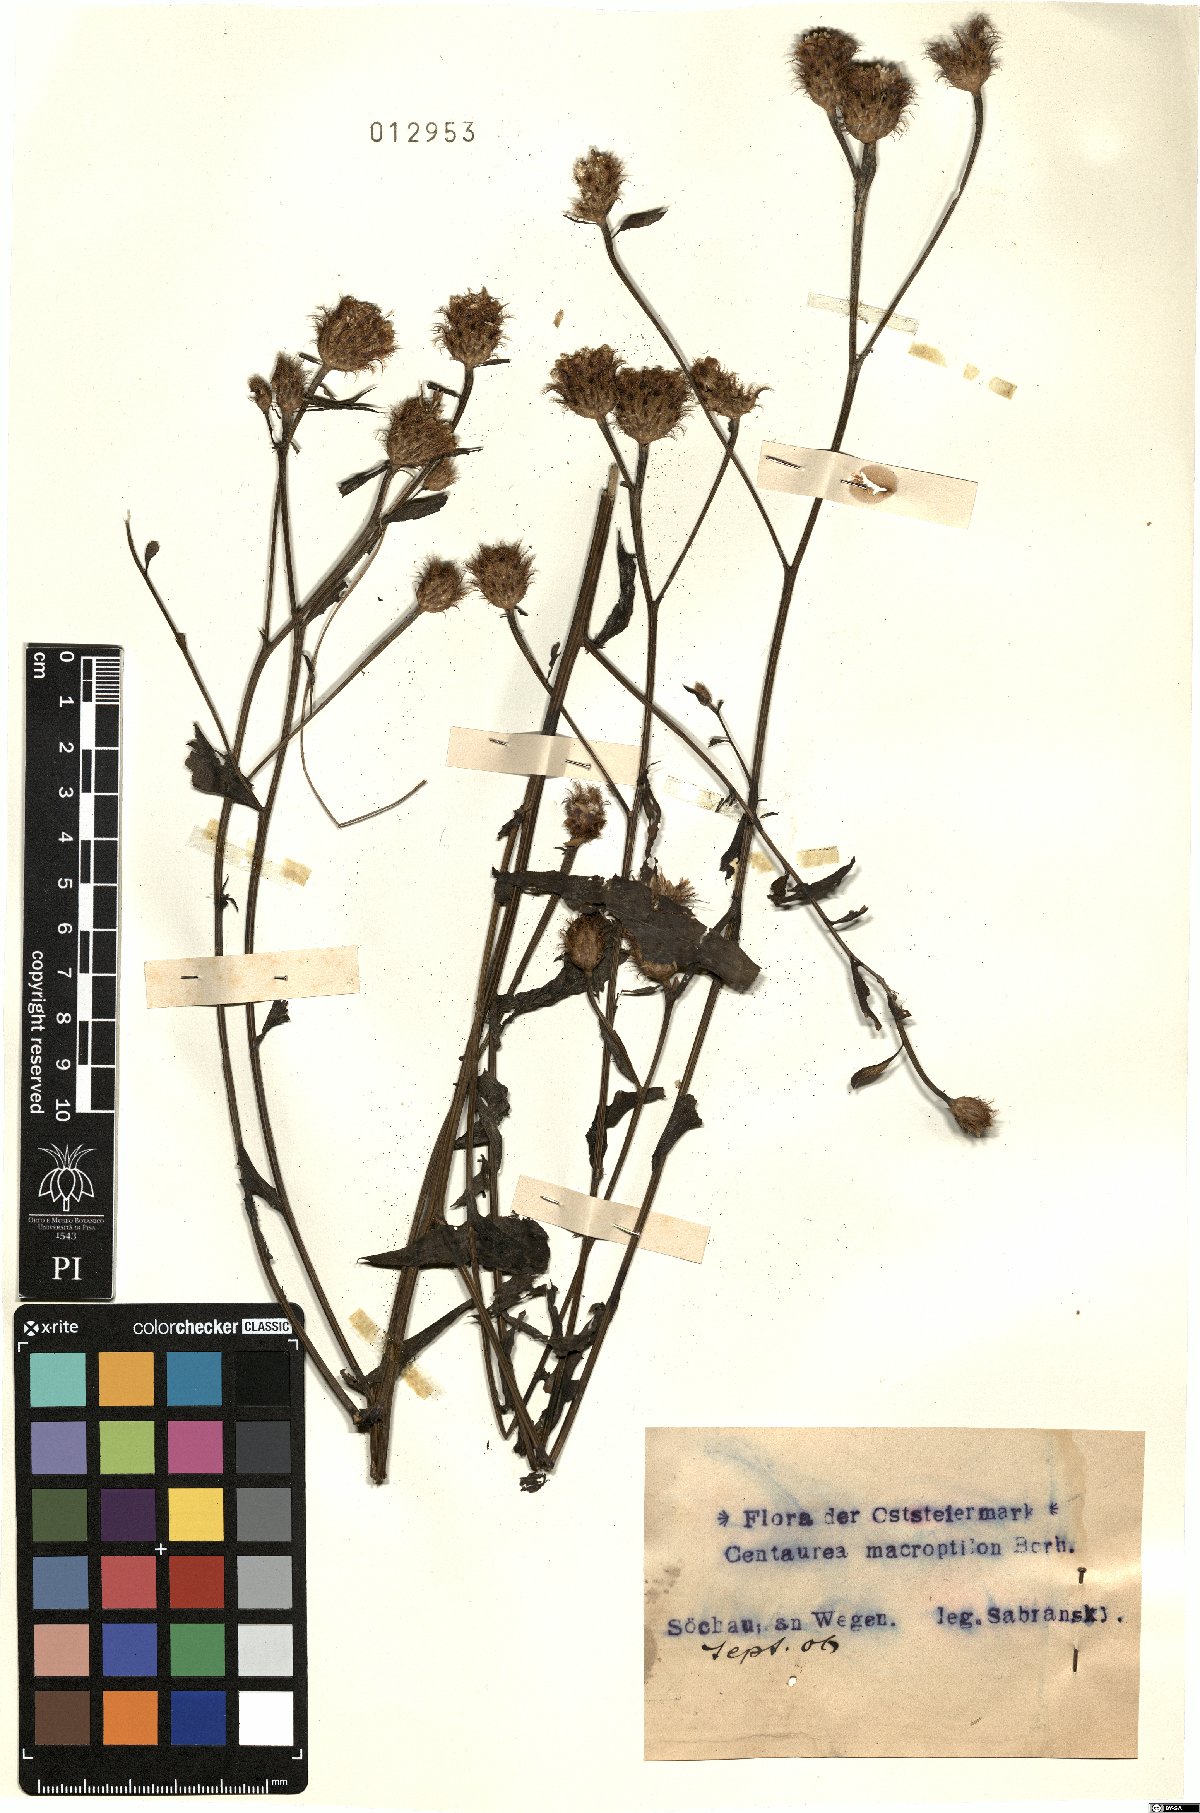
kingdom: Plantae
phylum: Tracheophyta
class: Magnoliopsida
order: Asterales
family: Asteraceae
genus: Centaurea
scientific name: Centaurea macroptilon
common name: Giant knapweed
